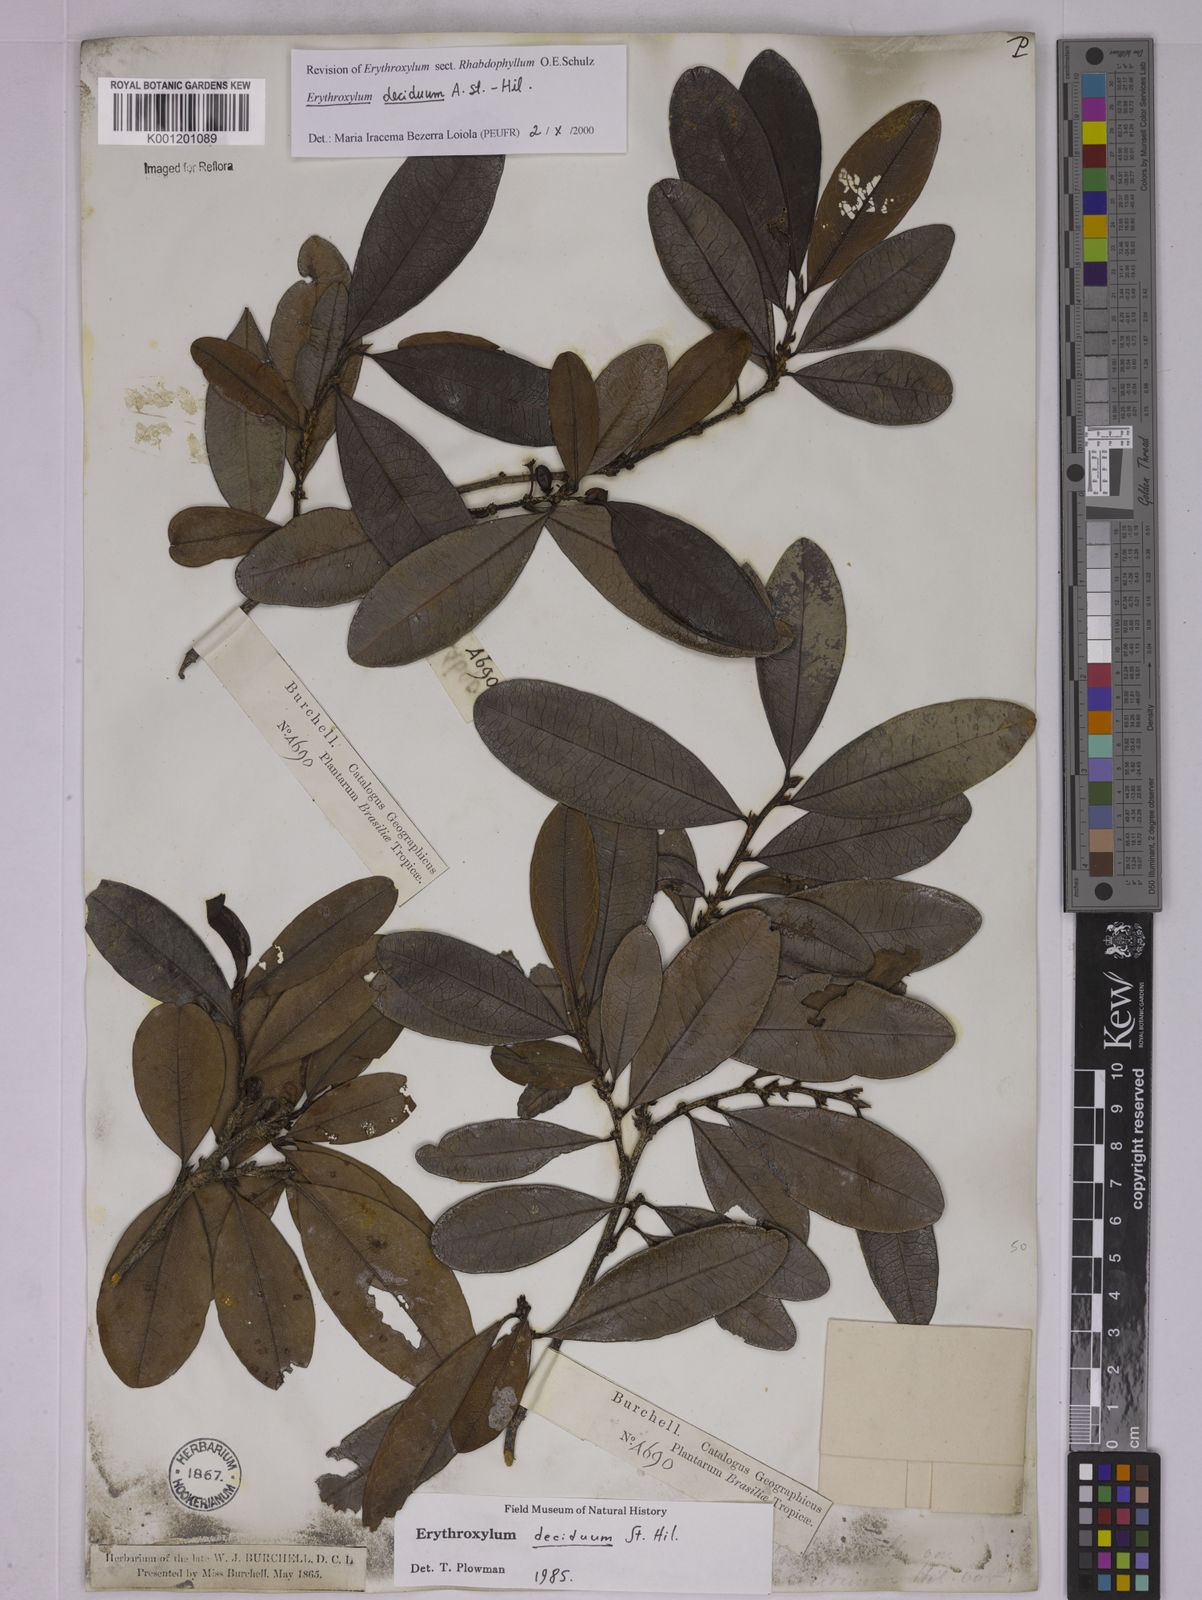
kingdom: Plantae
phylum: Tracheophyta
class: Magnoliopsida
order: Malpighiales
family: Erythroxylaceae
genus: Erythroxylum
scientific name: Erythroxylum deciduum
